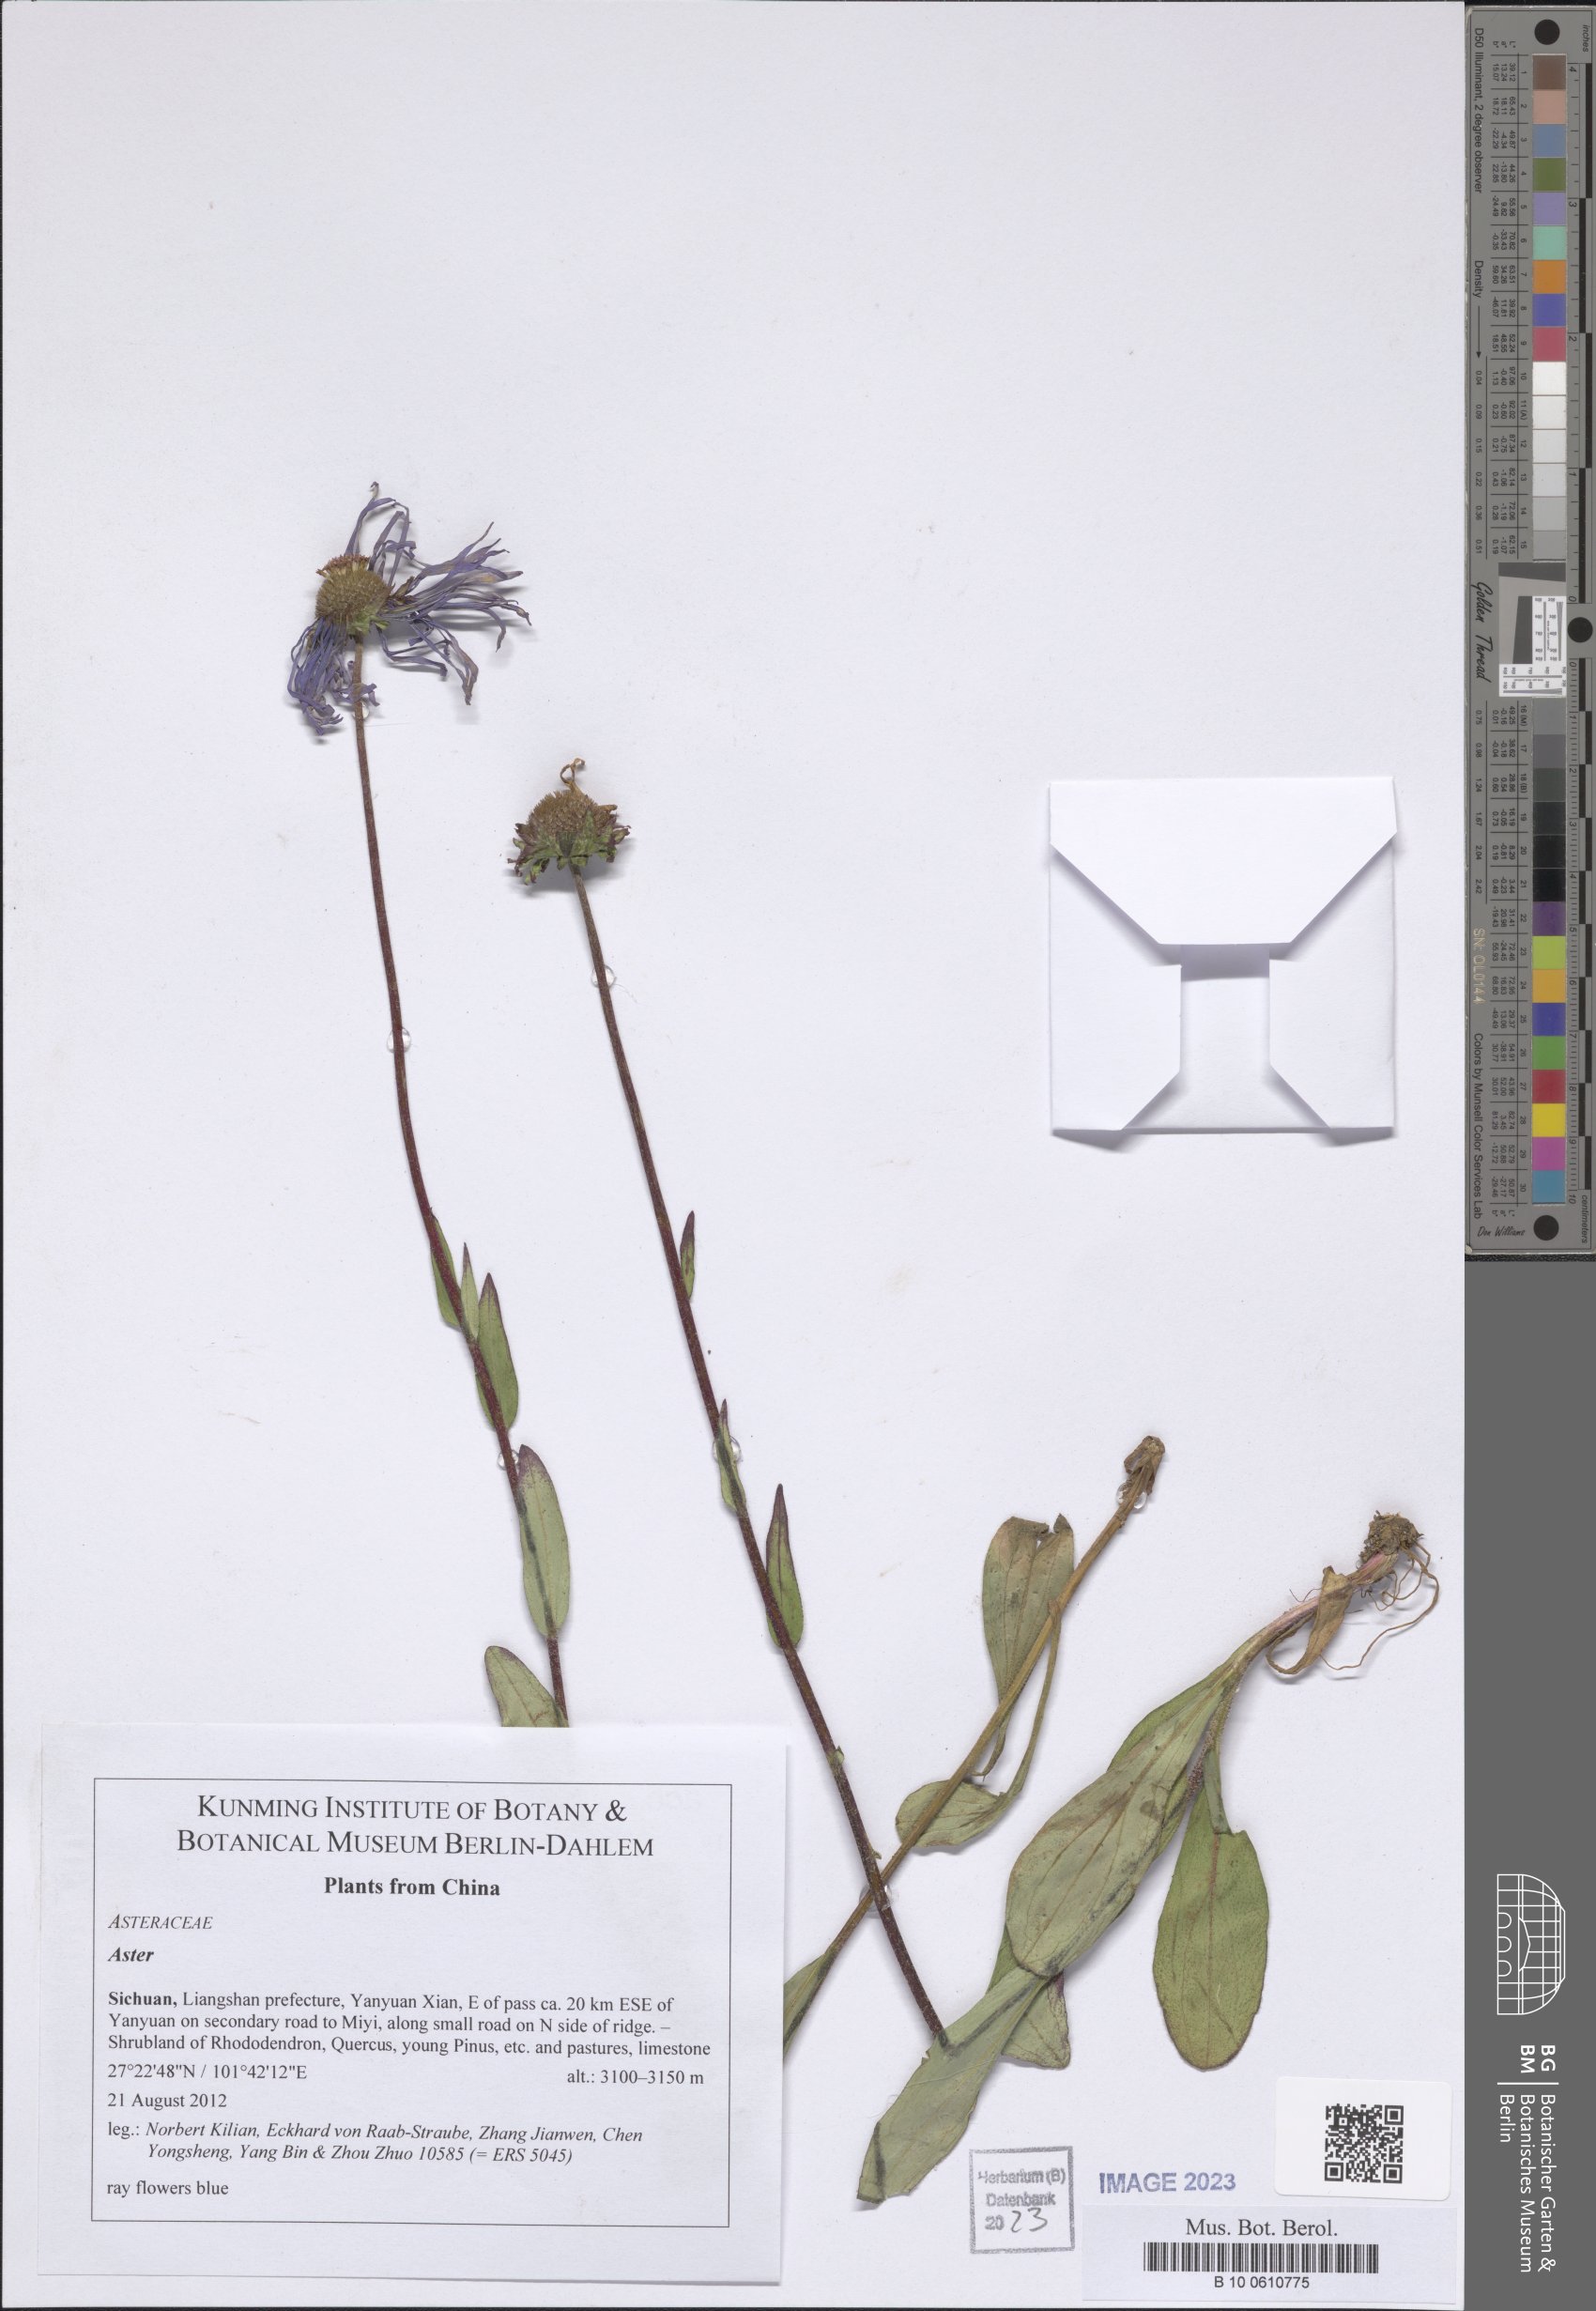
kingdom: Plantae
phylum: Tracheophyta
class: Magnoliopsida
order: Asterales
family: Asteraceae
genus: Aster
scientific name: Aster
